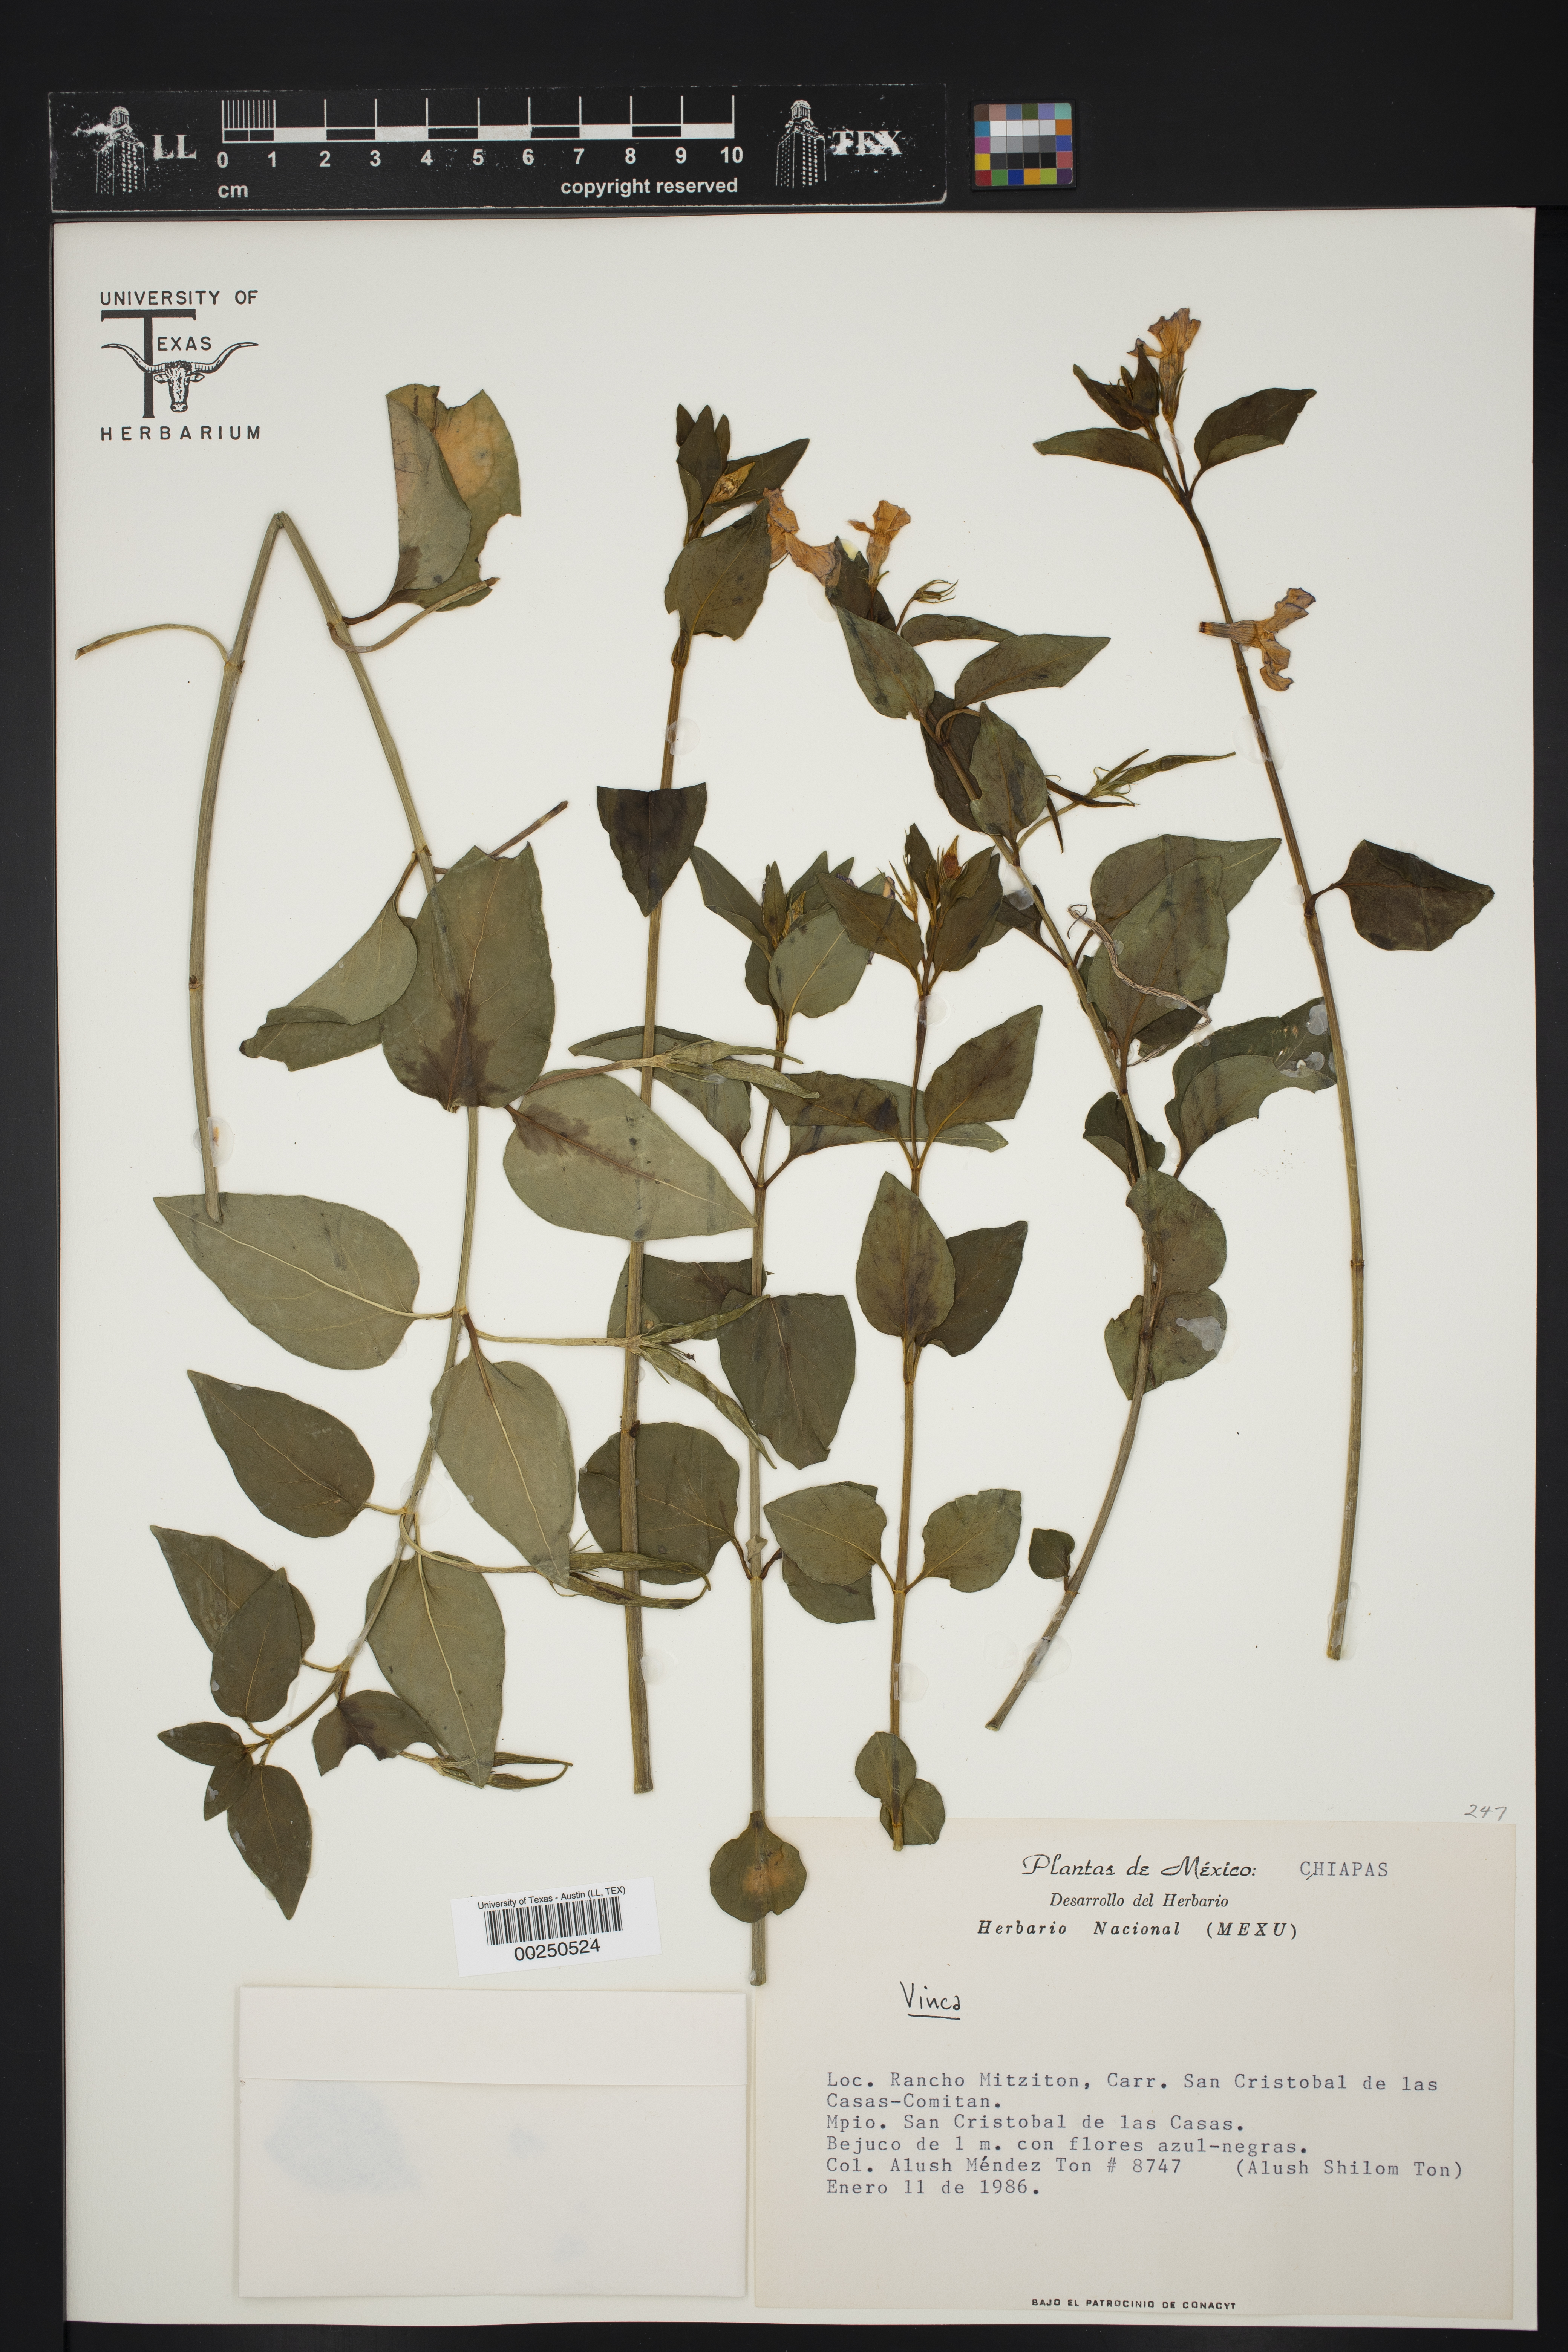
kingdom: Plantae
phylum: Tracheophyta
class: Magnoliopsida
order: Gentianales
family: Apocynaceae
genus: Vinca
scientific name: Vinca major
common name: Greater periwinkle
